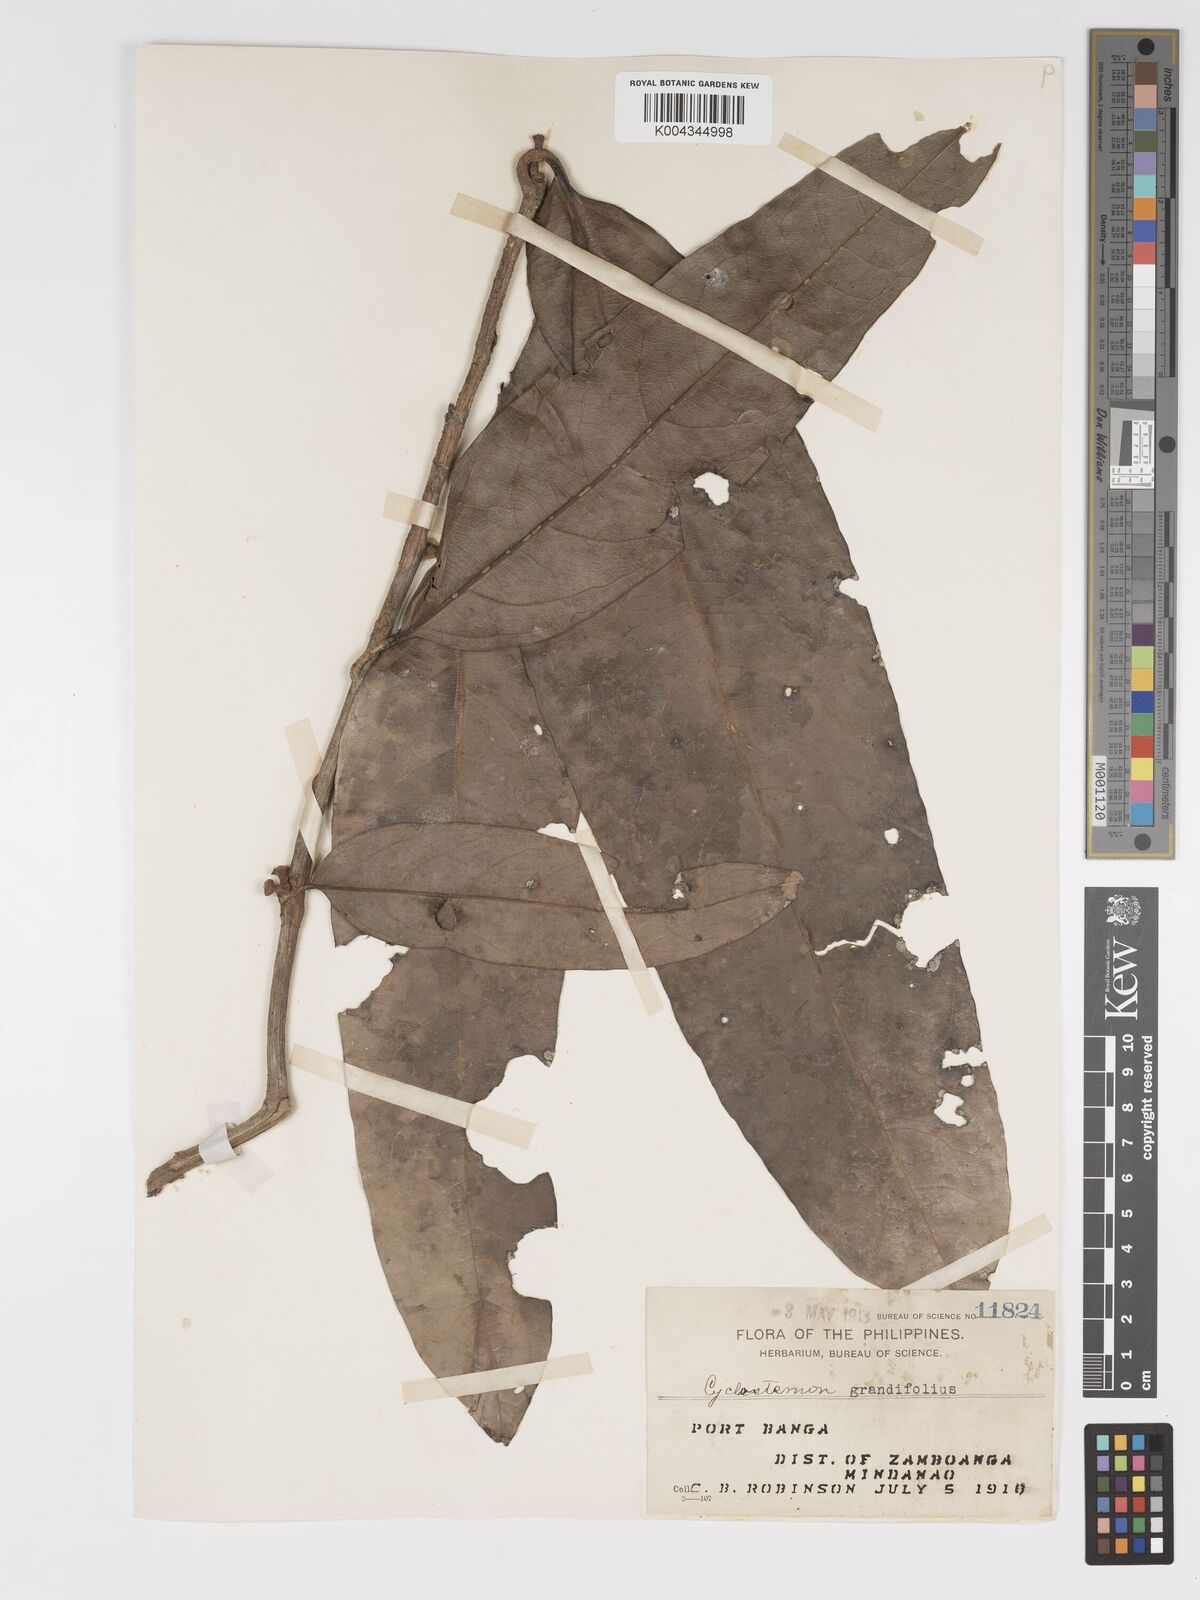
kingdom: Plantae
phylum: Tracheophyta
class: Magnoliopsida
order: Malpighiales
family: Putranjivaceae
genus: Drypetes
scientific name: Drypetes grandifolia
